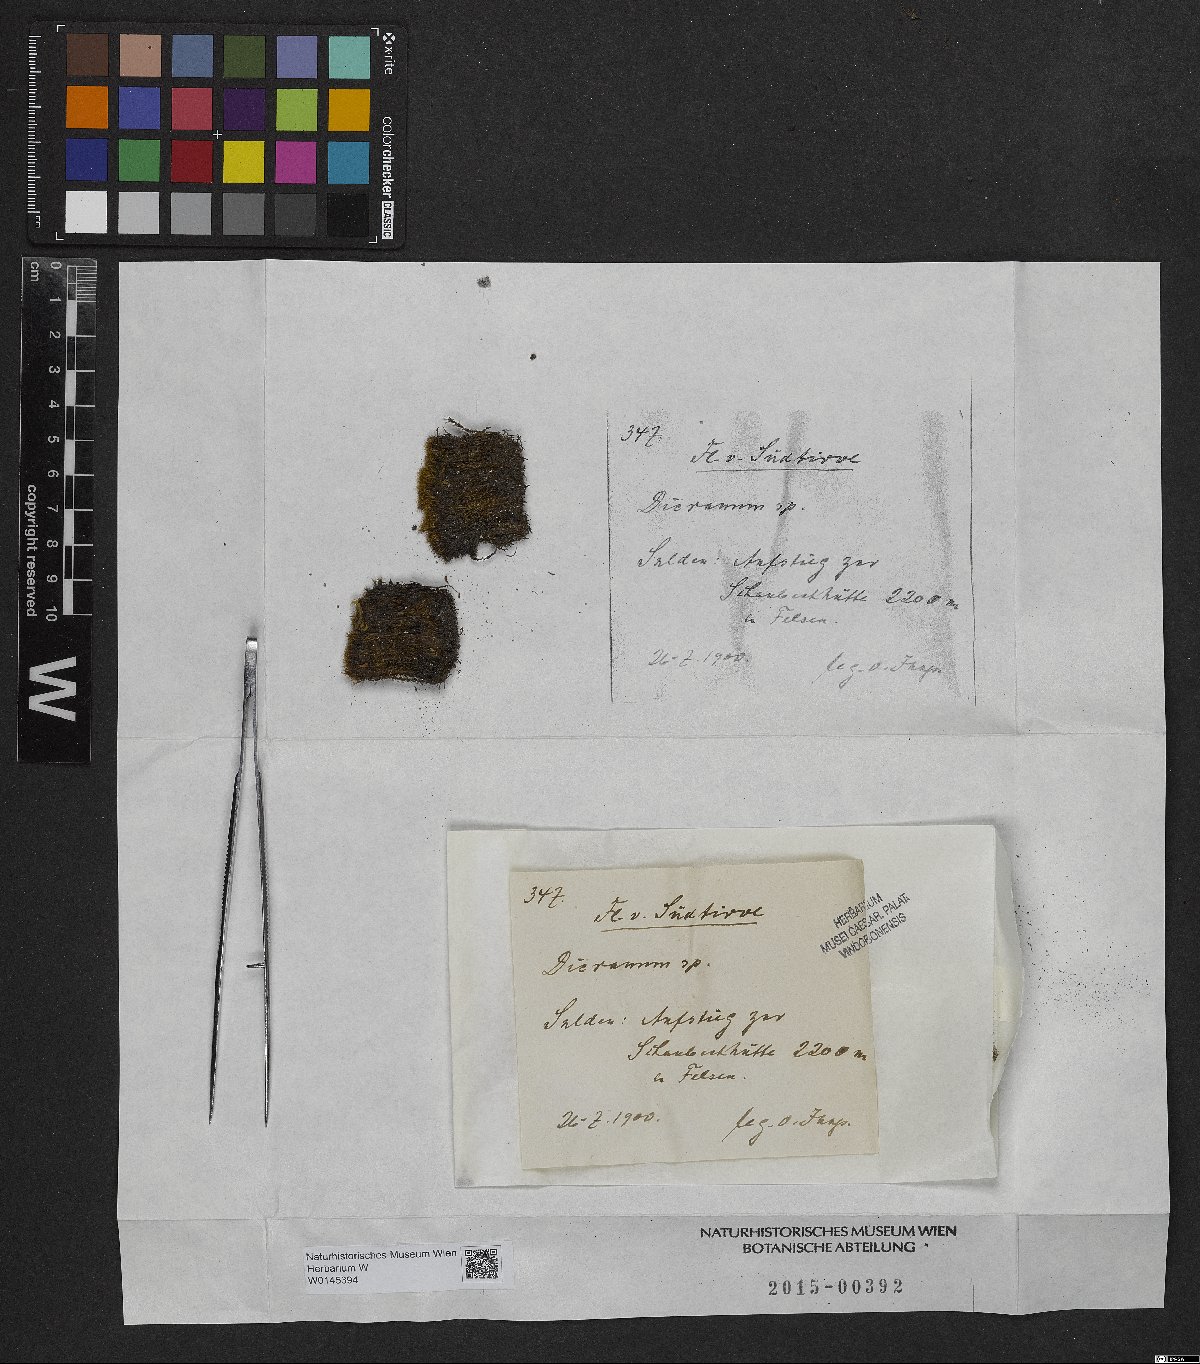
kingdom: Plantae
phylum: Bryophyta
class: Bryopsida
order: Dicranales
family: Dicranaceae
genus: Dicranum
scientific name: Dicranum
